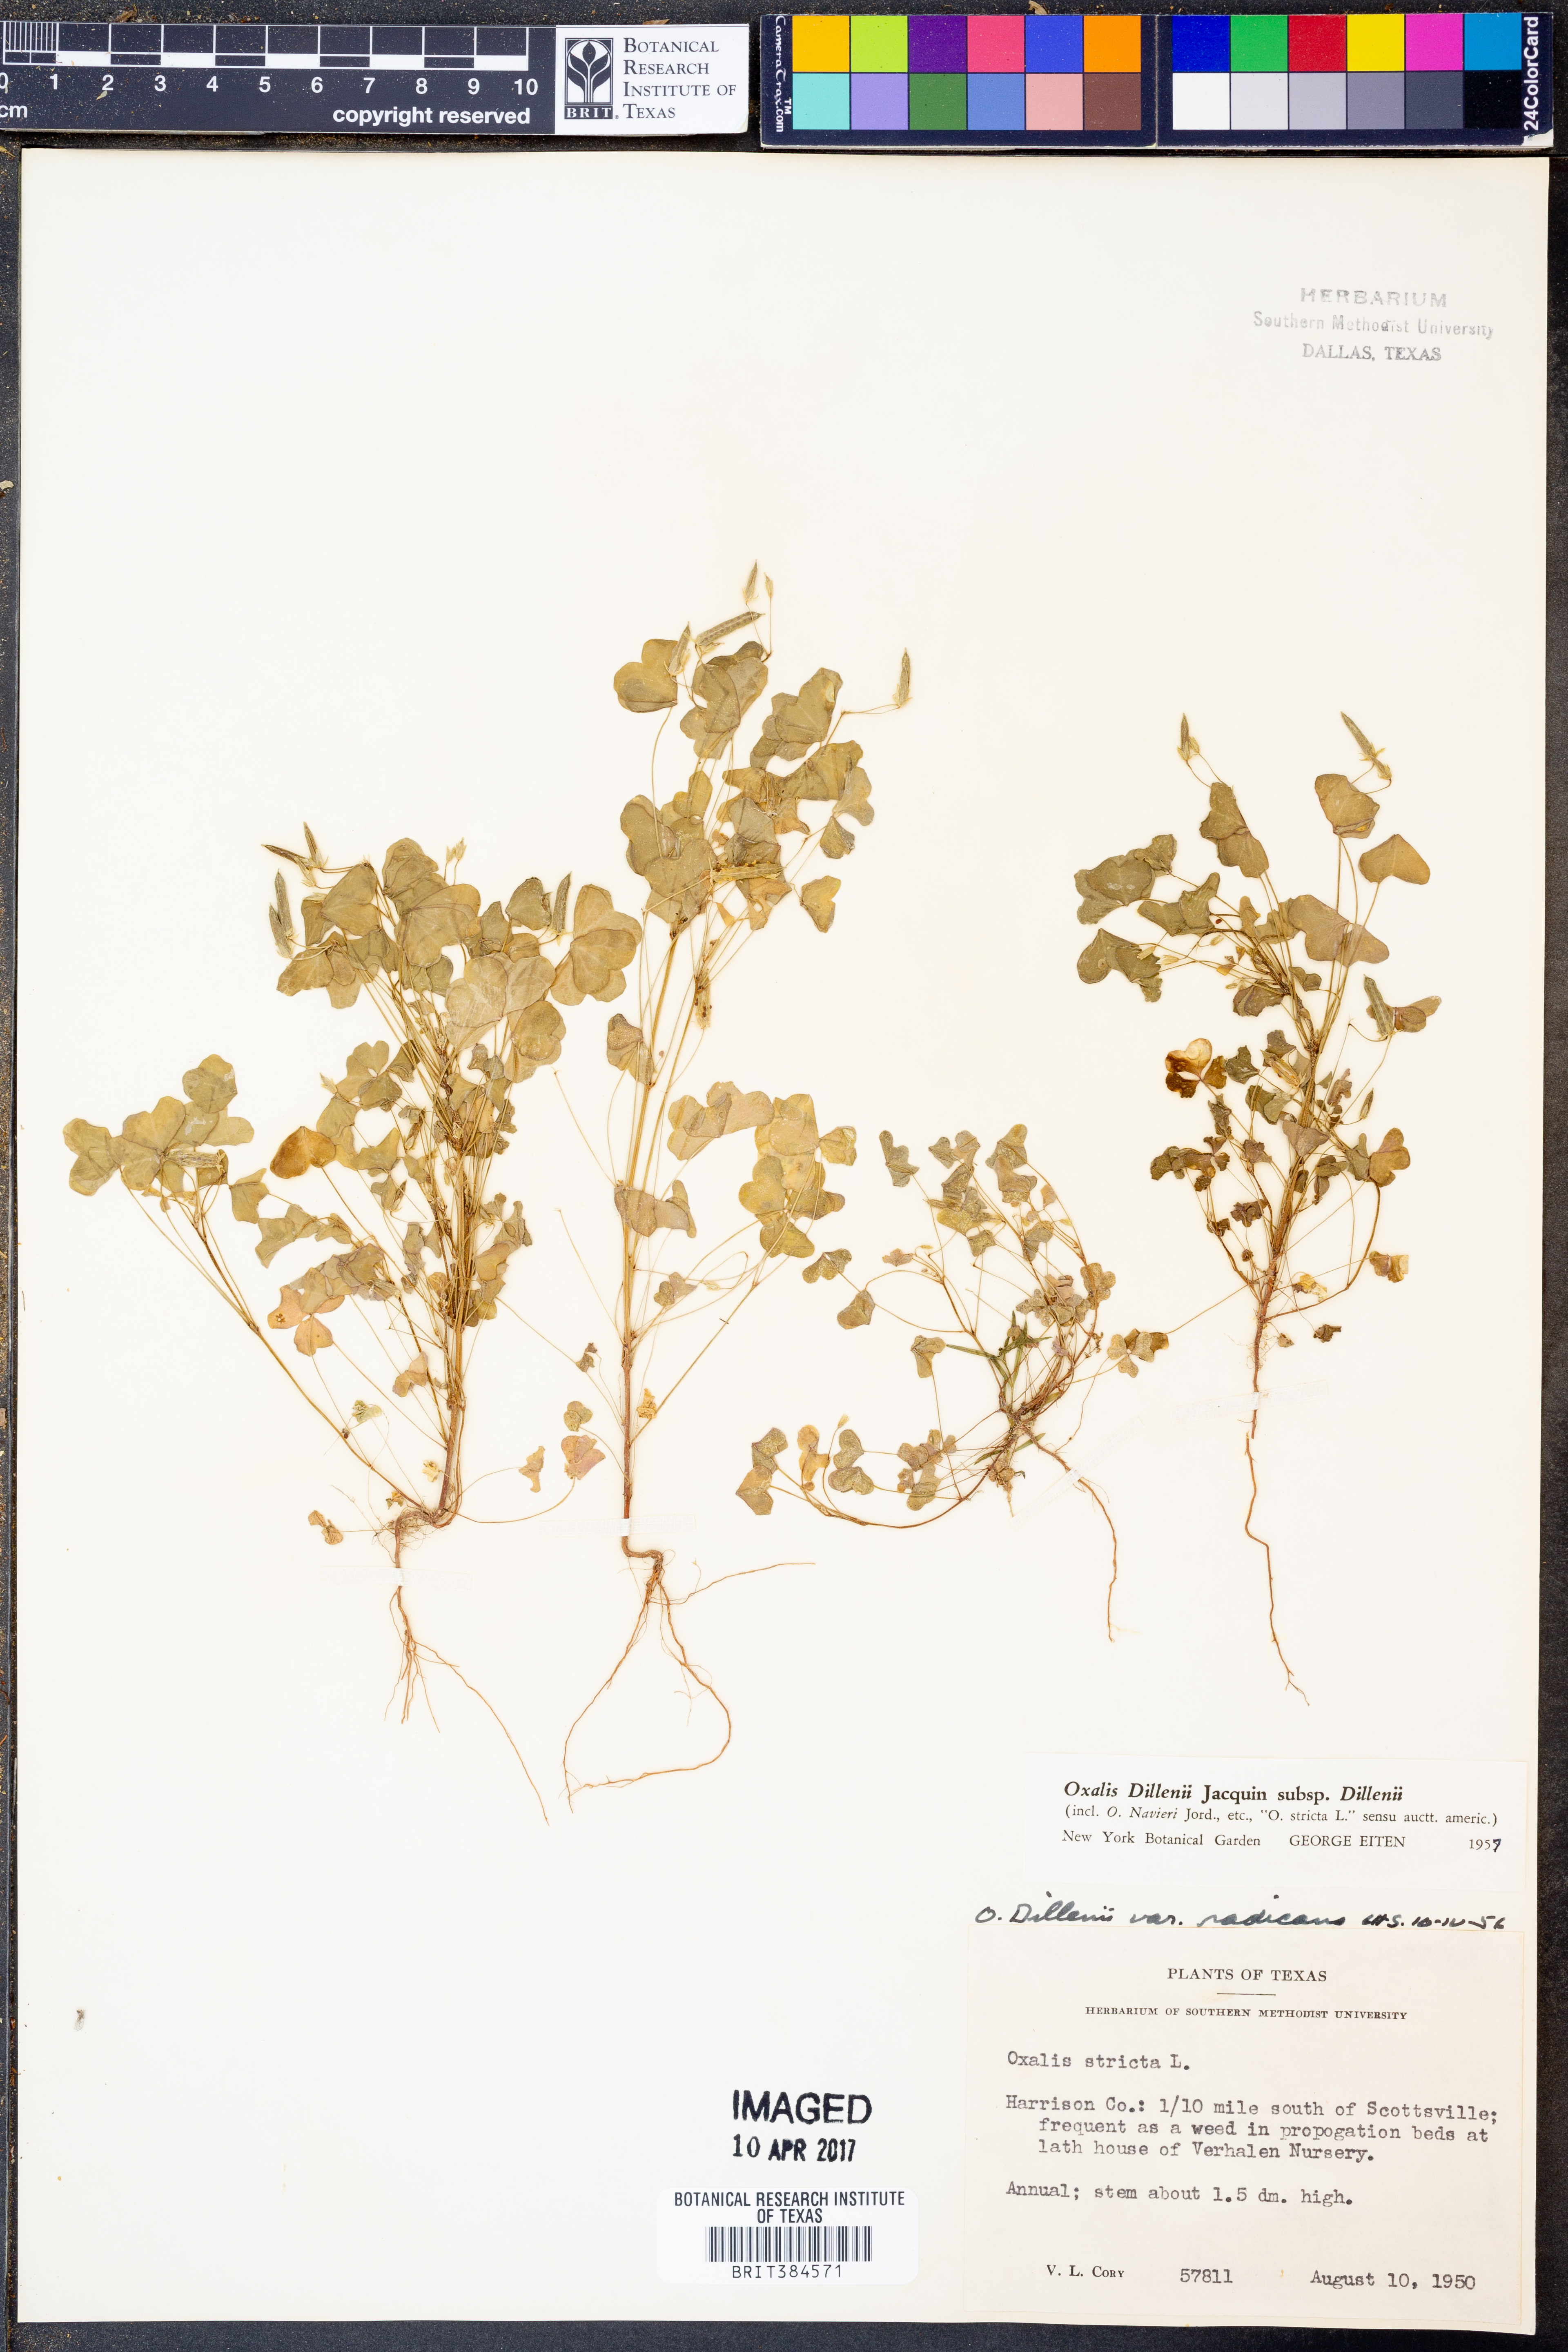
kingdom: Plantae
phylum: Tracheophyta
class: Magnoliopsida
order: Oxalidales
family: Oxalidaceae
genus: Oxalis
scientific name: Oxalis dillenii
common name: Sussex yellow-sorrel
